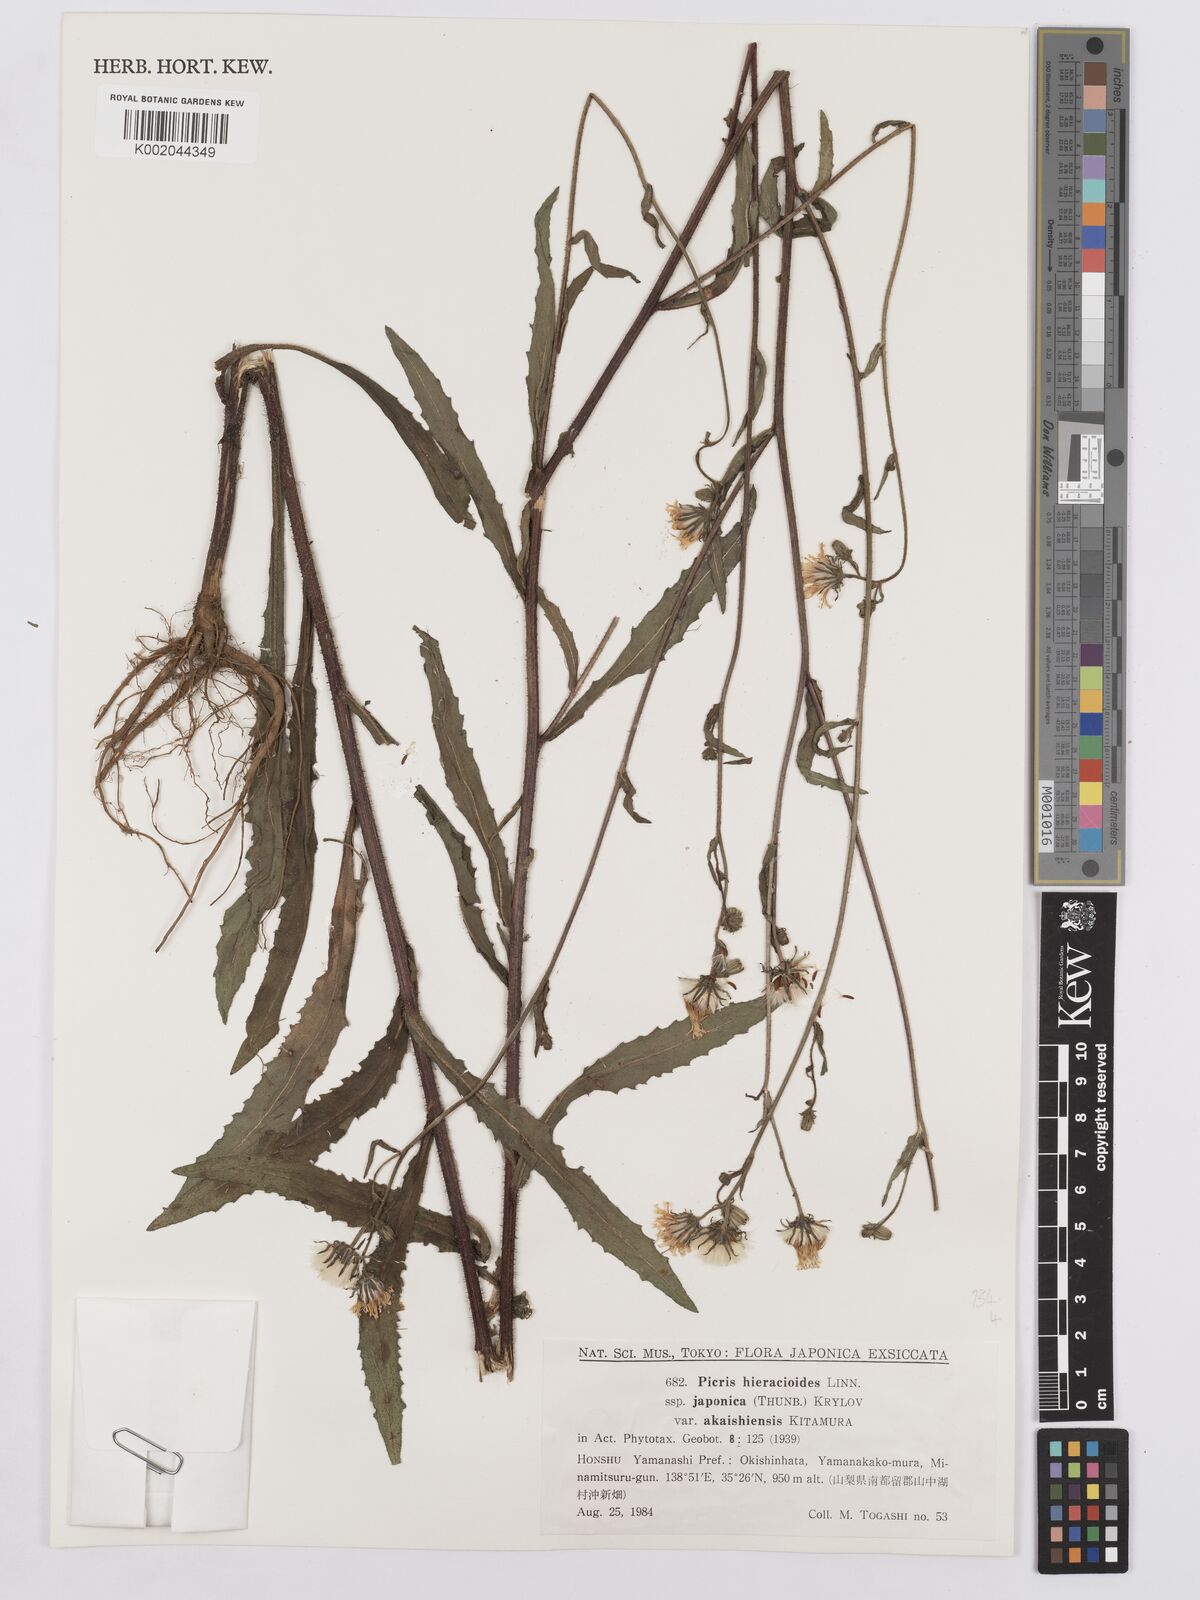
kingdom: Plantae
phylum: Tracheophyta
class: Magnoliopsida
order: Asterales
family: Asteraceae
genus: Picris
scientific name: Picris hieracioides
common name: Hawkweed oxtongue
